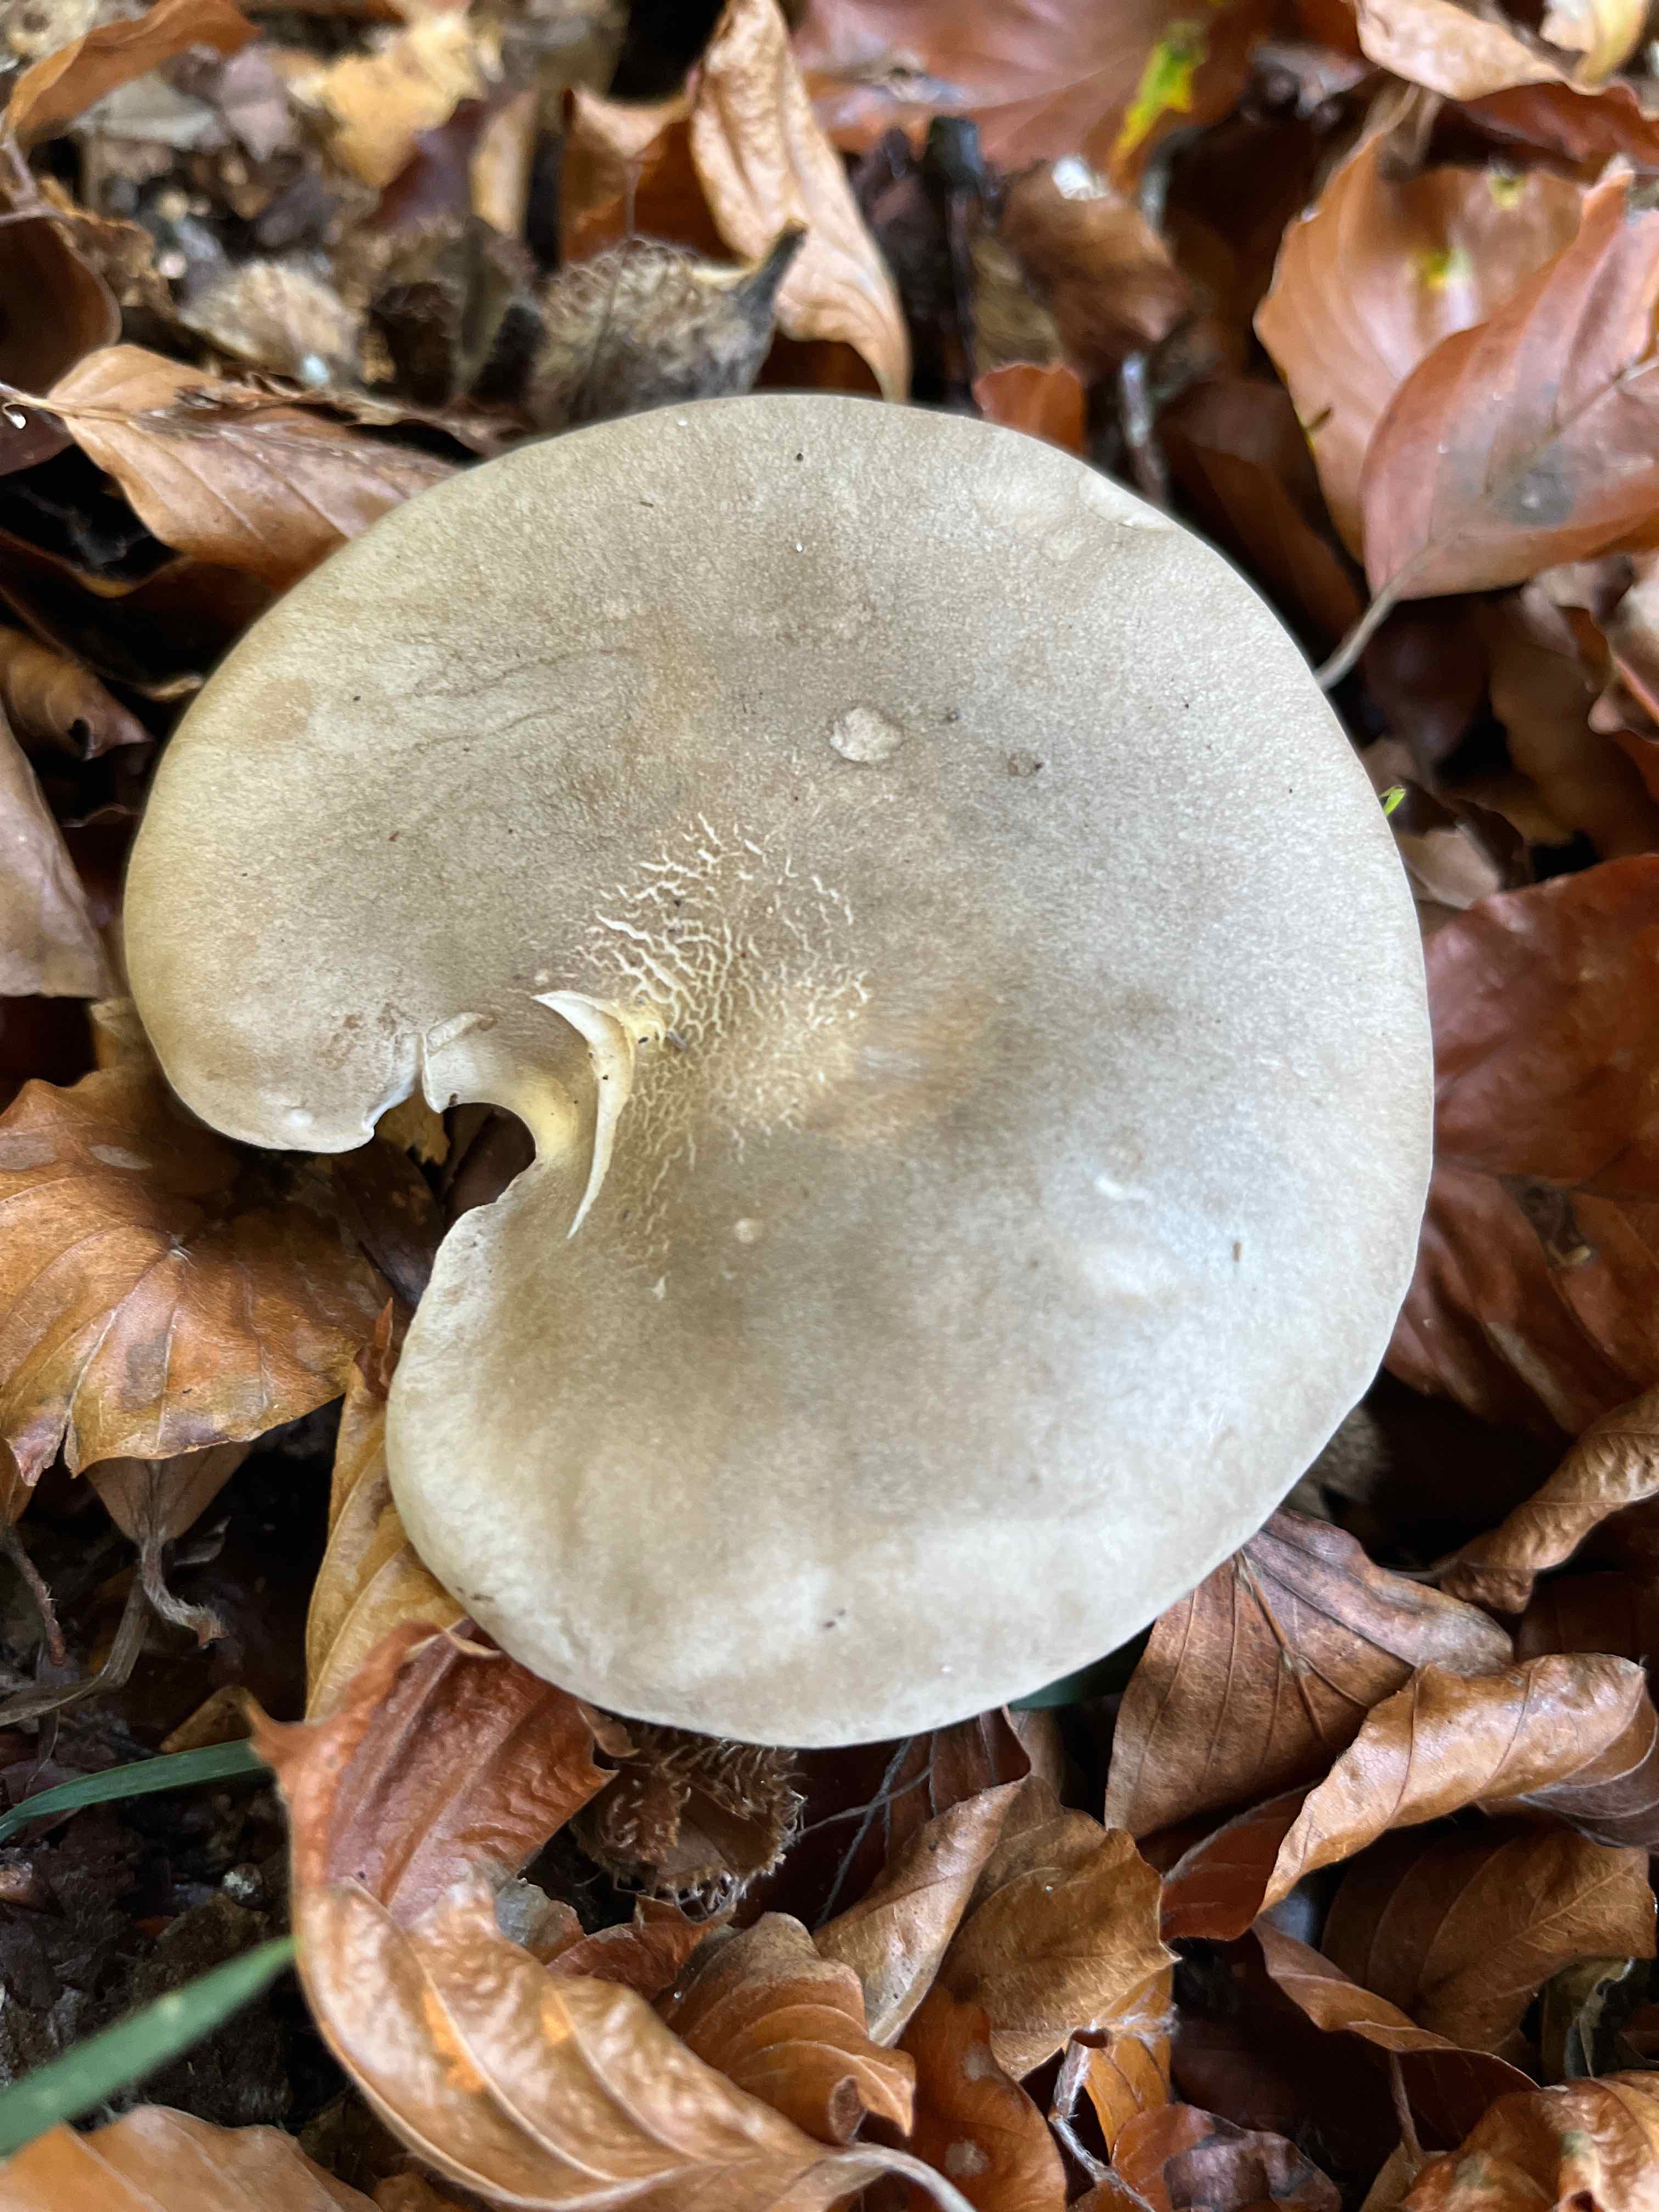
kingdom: Fungi
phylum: Basidiomycota
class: Agaricomycetes
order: Agaricales
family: Tricholomataceae
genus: Clitocybe
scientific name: Clitocybe nebularis
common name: tåge-tragthat
